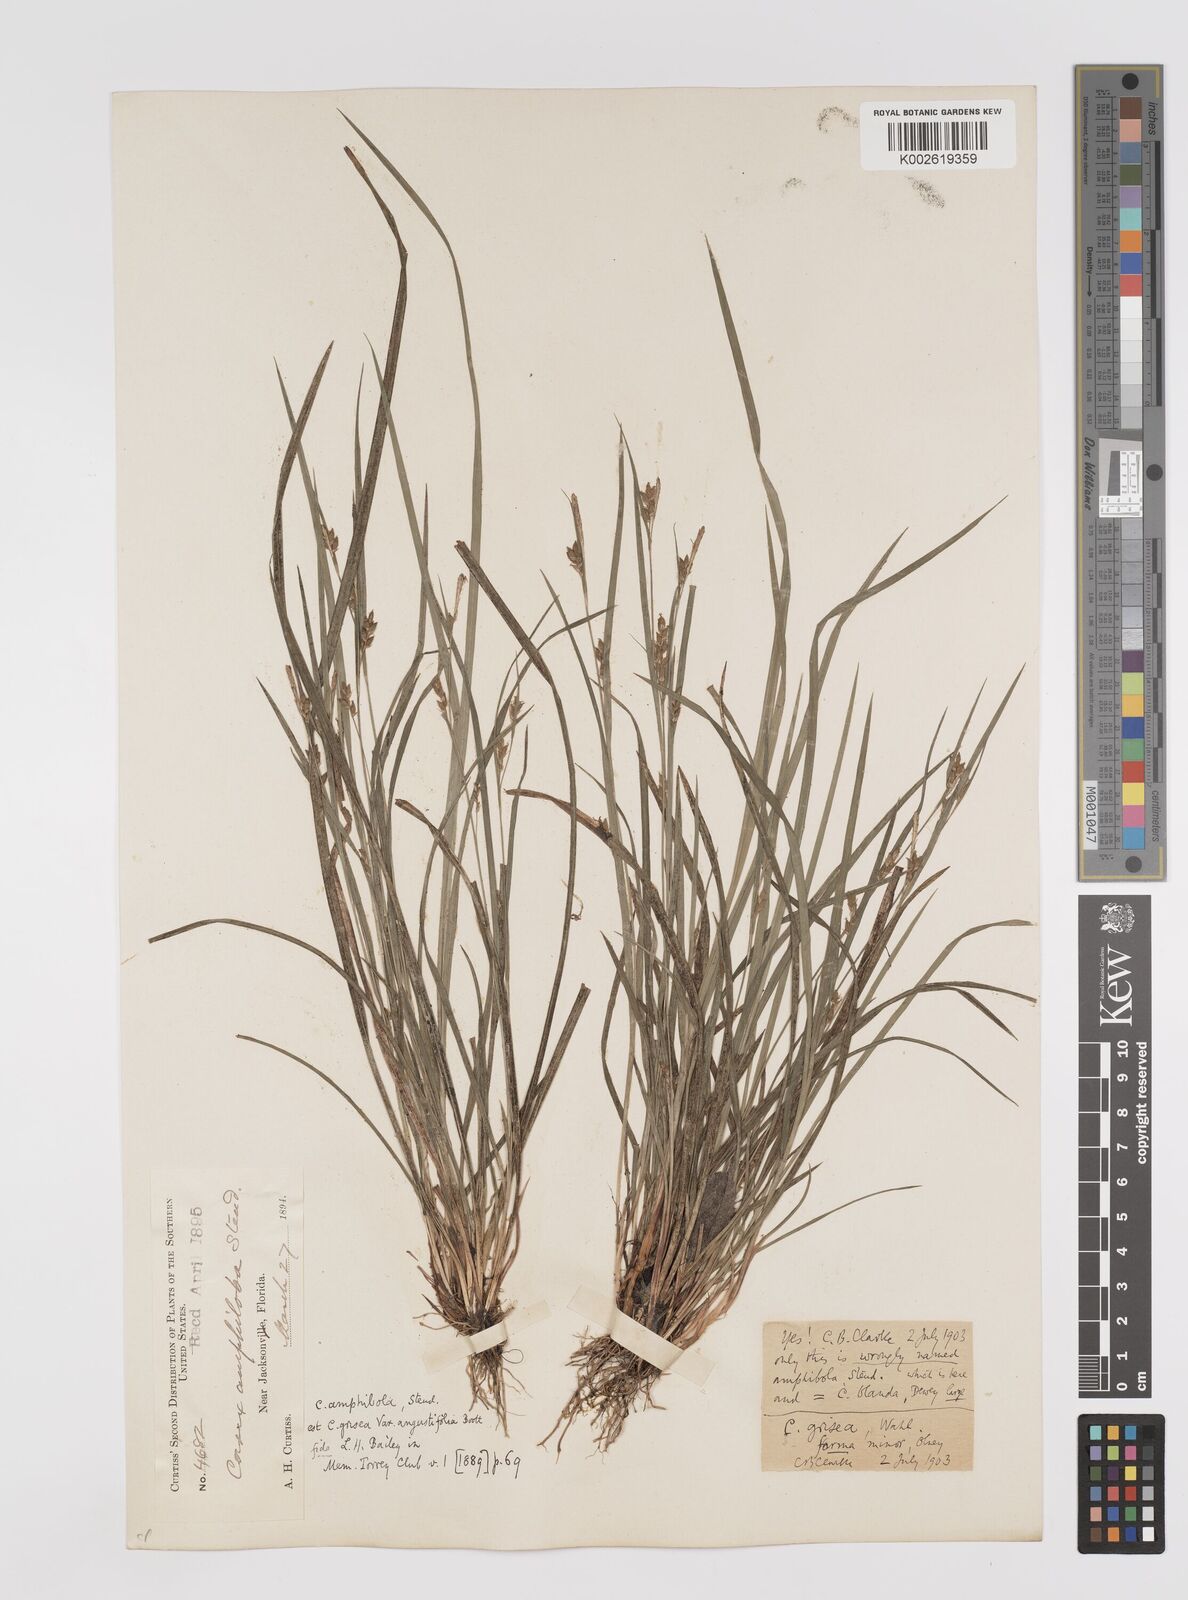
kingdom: Plantae
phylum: Tracheophyta
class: Liliopsida
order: Poales
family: Cyperaceae
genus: Carex
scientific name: Carex grisea
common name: Eastern narrow-leaved sedge
